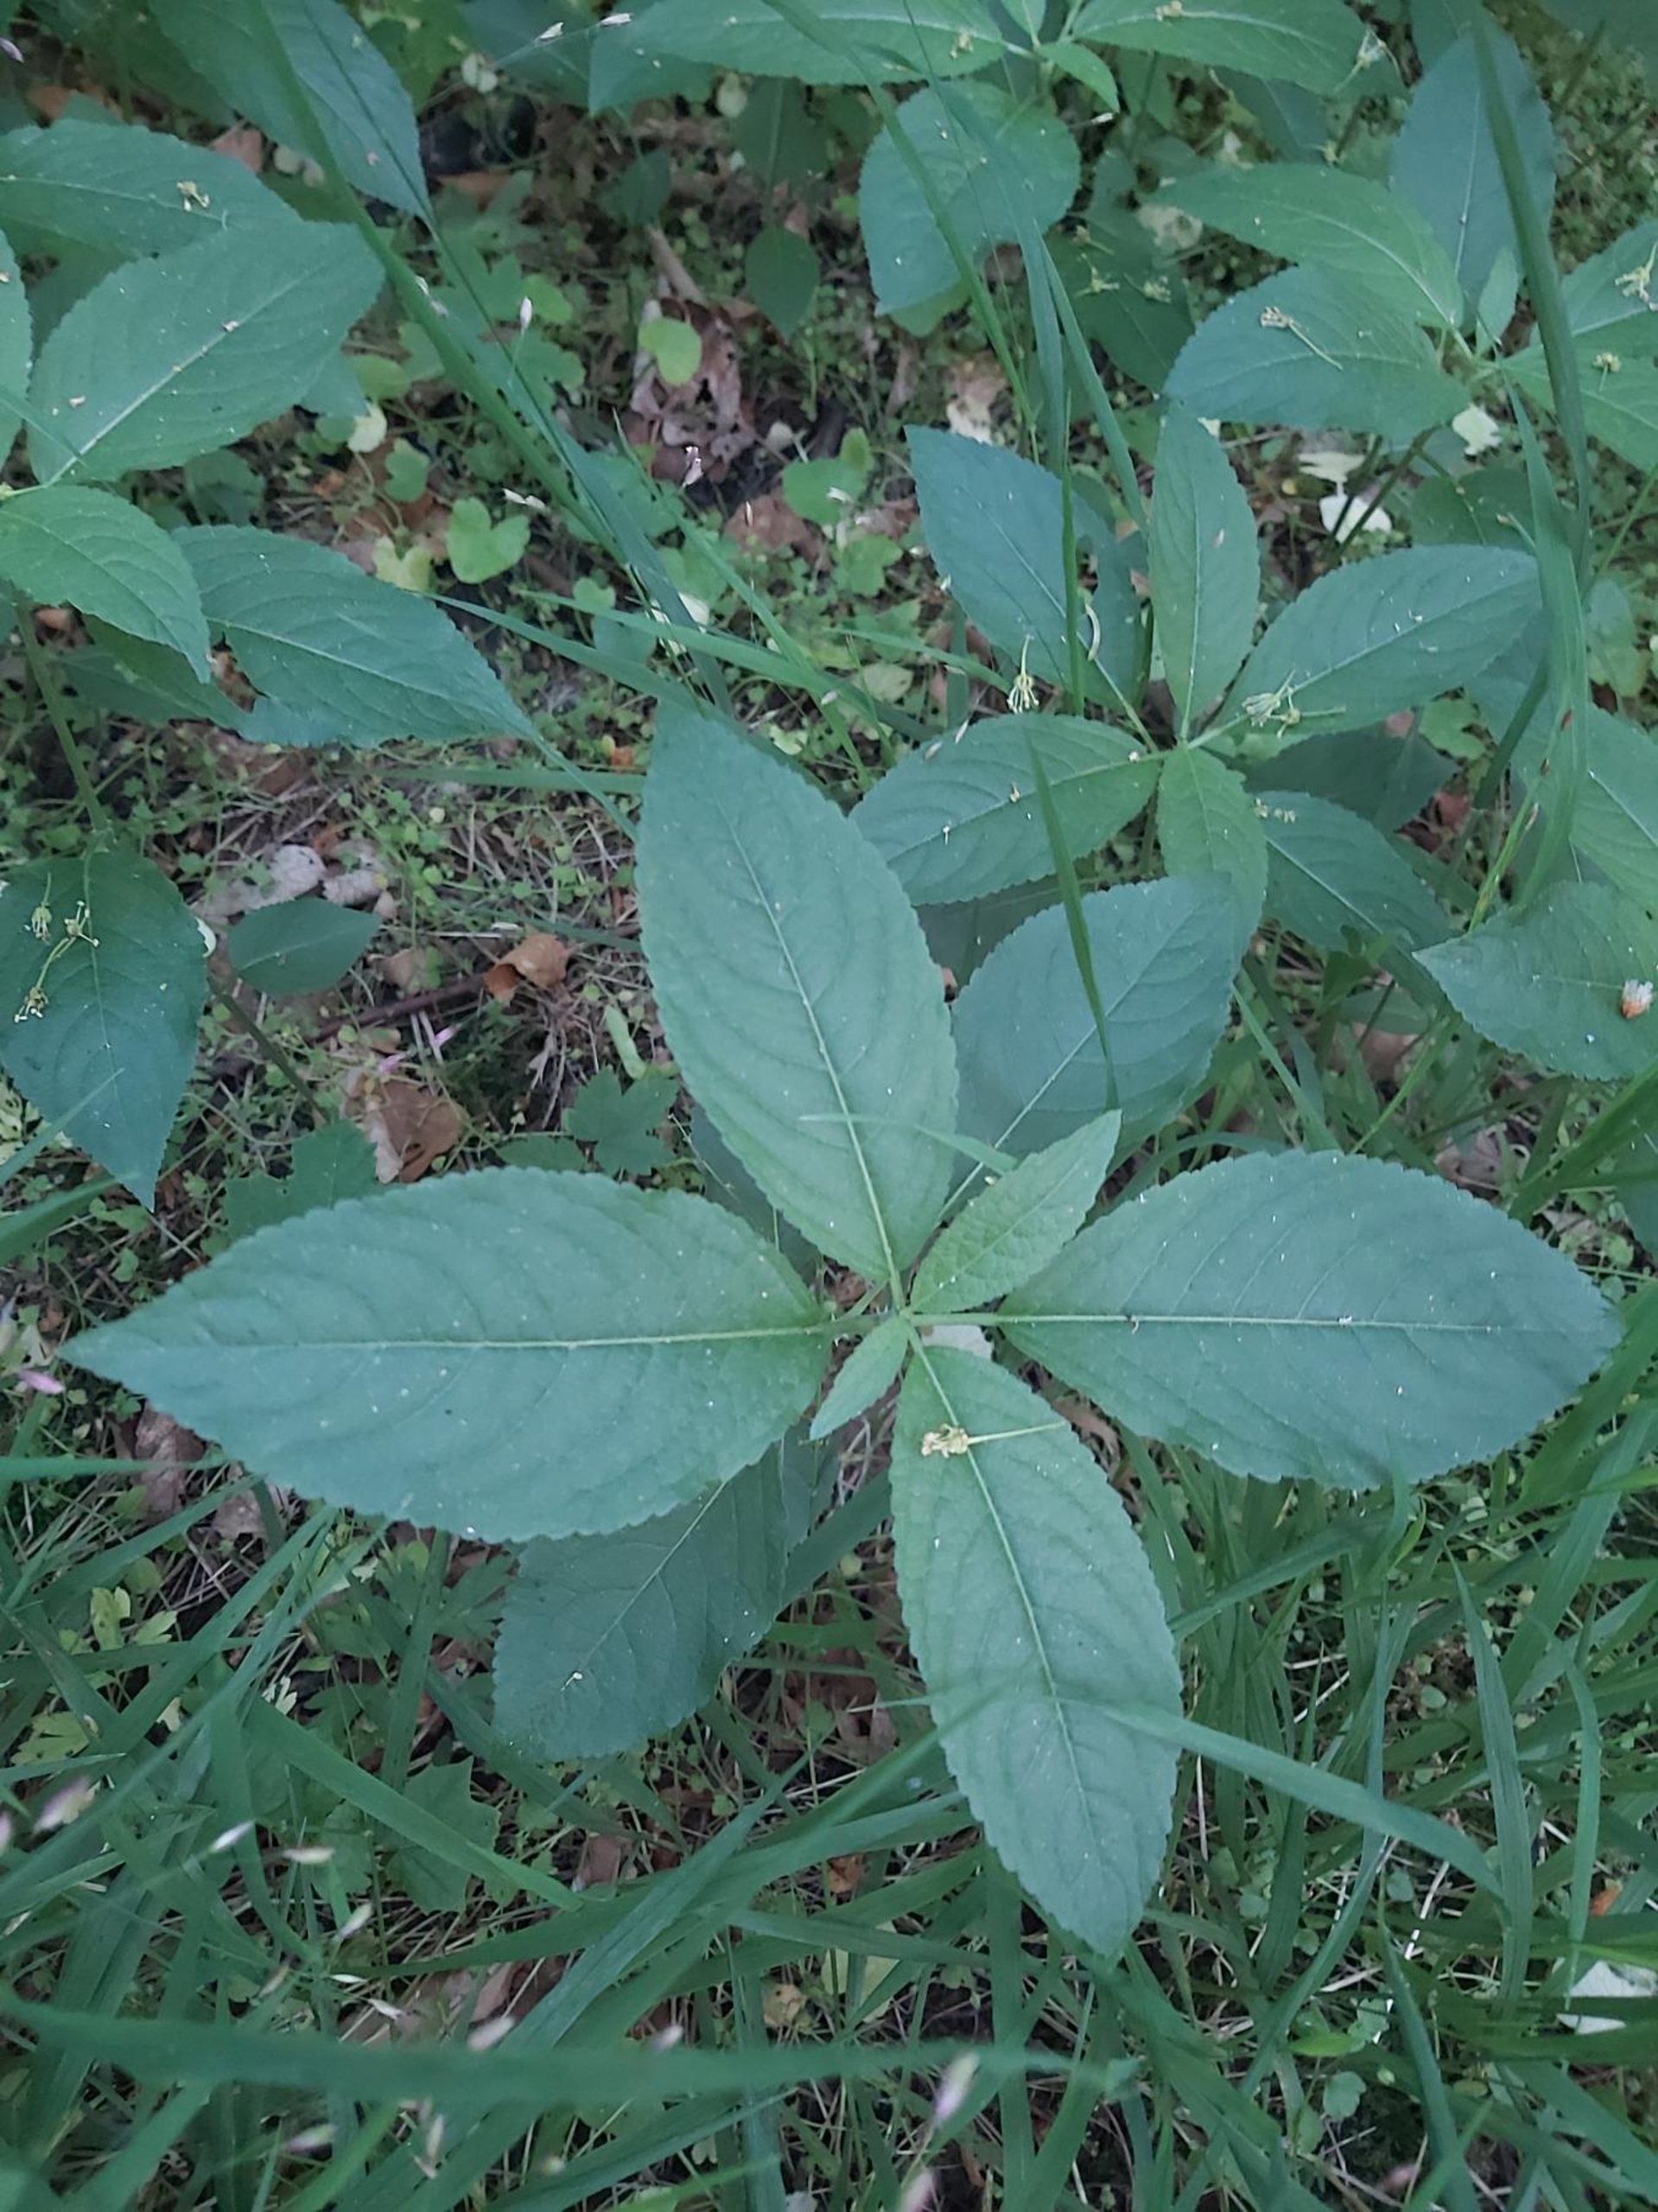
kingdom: Plantae
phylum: Tracheophyta
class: Magnoliopsida
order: Ericales
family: Balsaminaceae
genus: Impatiens
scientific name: Impatiens parviflora
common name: Småblomstret balsamin
